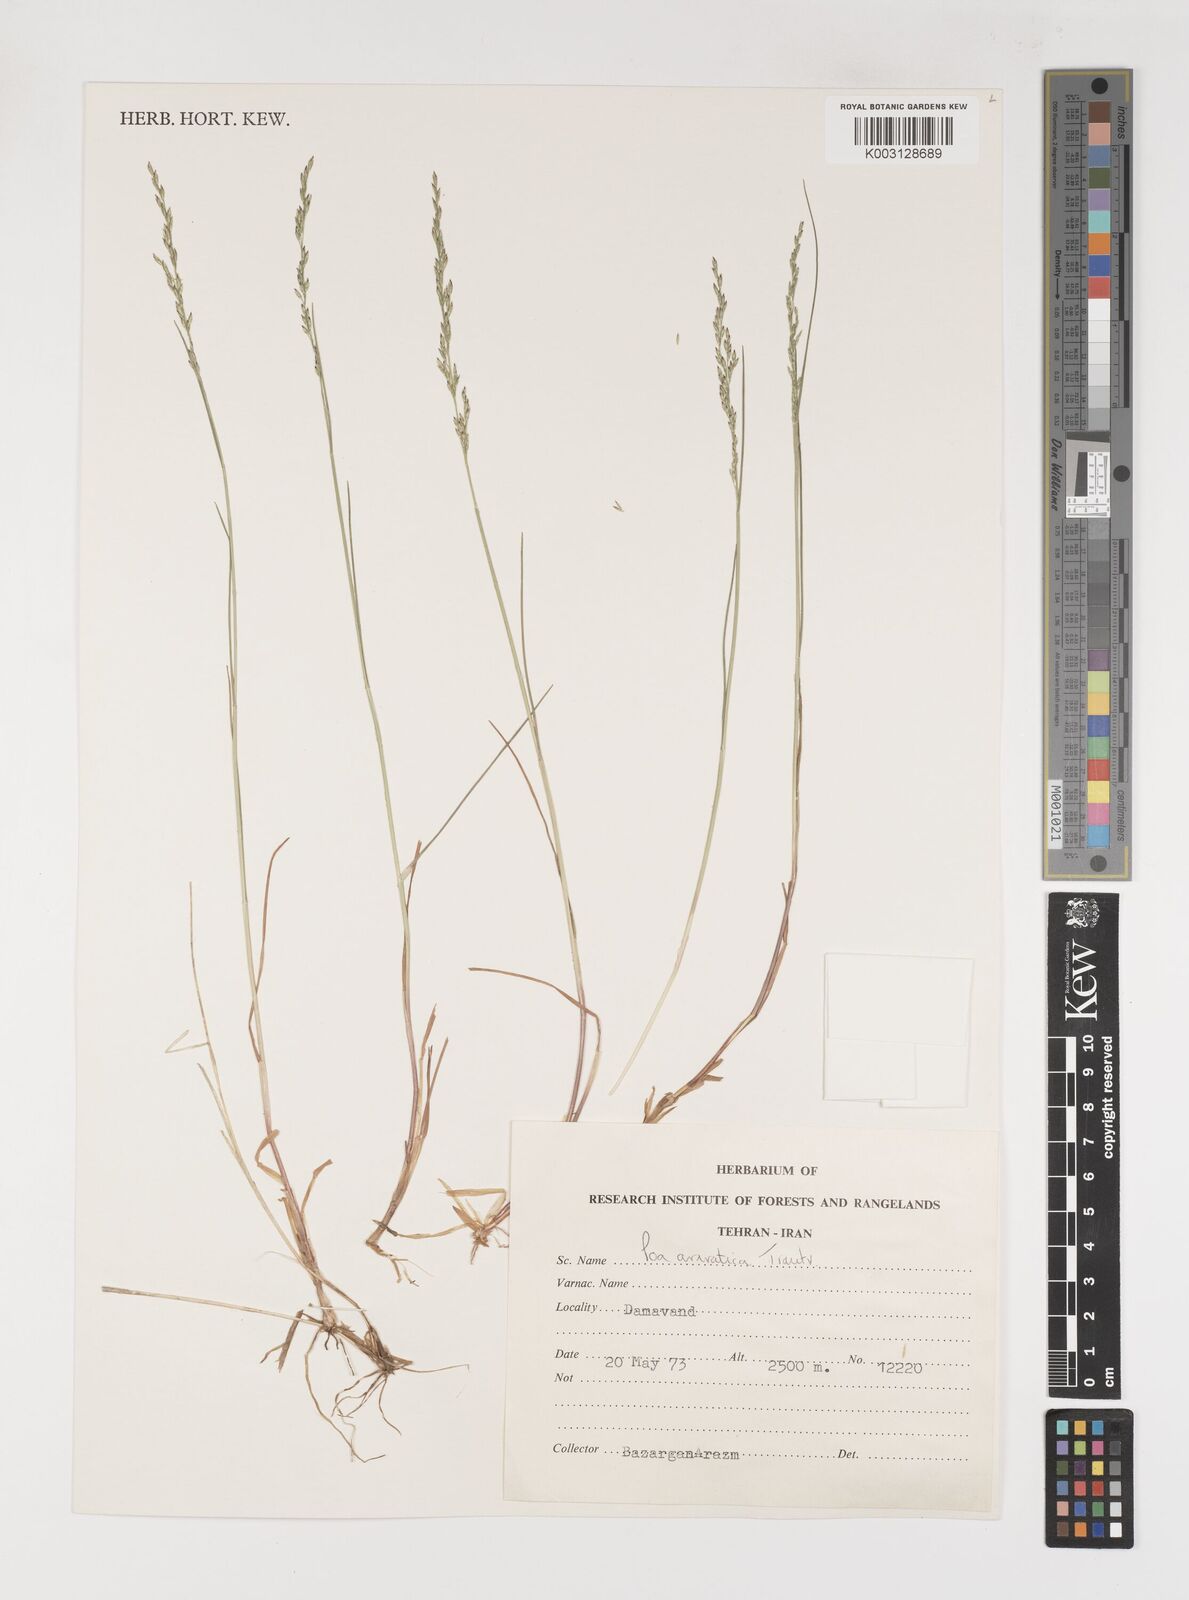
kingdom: Plantae
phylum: Tracheophyta
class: Liliopsida
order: Poales
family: Poaceae
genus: Poa
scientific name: Poa araratica
